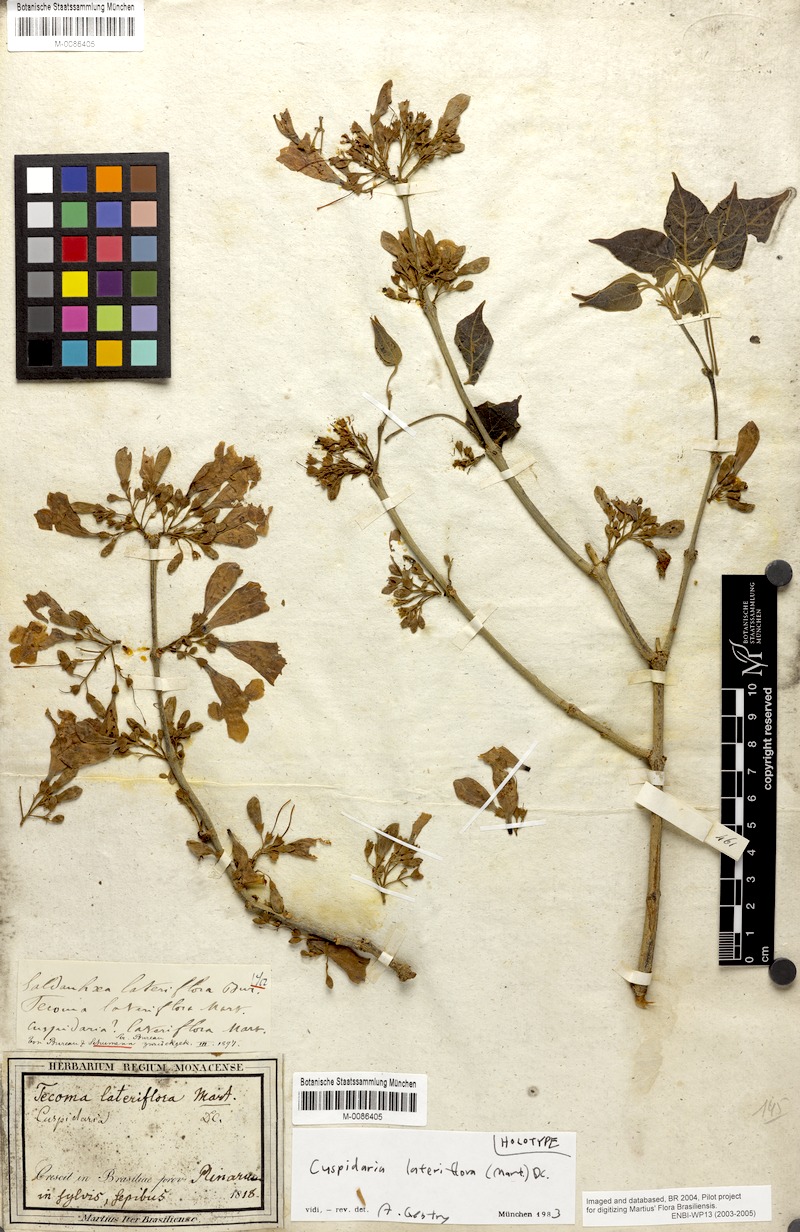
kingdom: Plantae
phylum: Tracheophyta
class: Magnoliopsida
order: Lamiales
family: Bignoniaceae
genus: Cuspidaria
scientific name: Cuspidaria lateriflora
